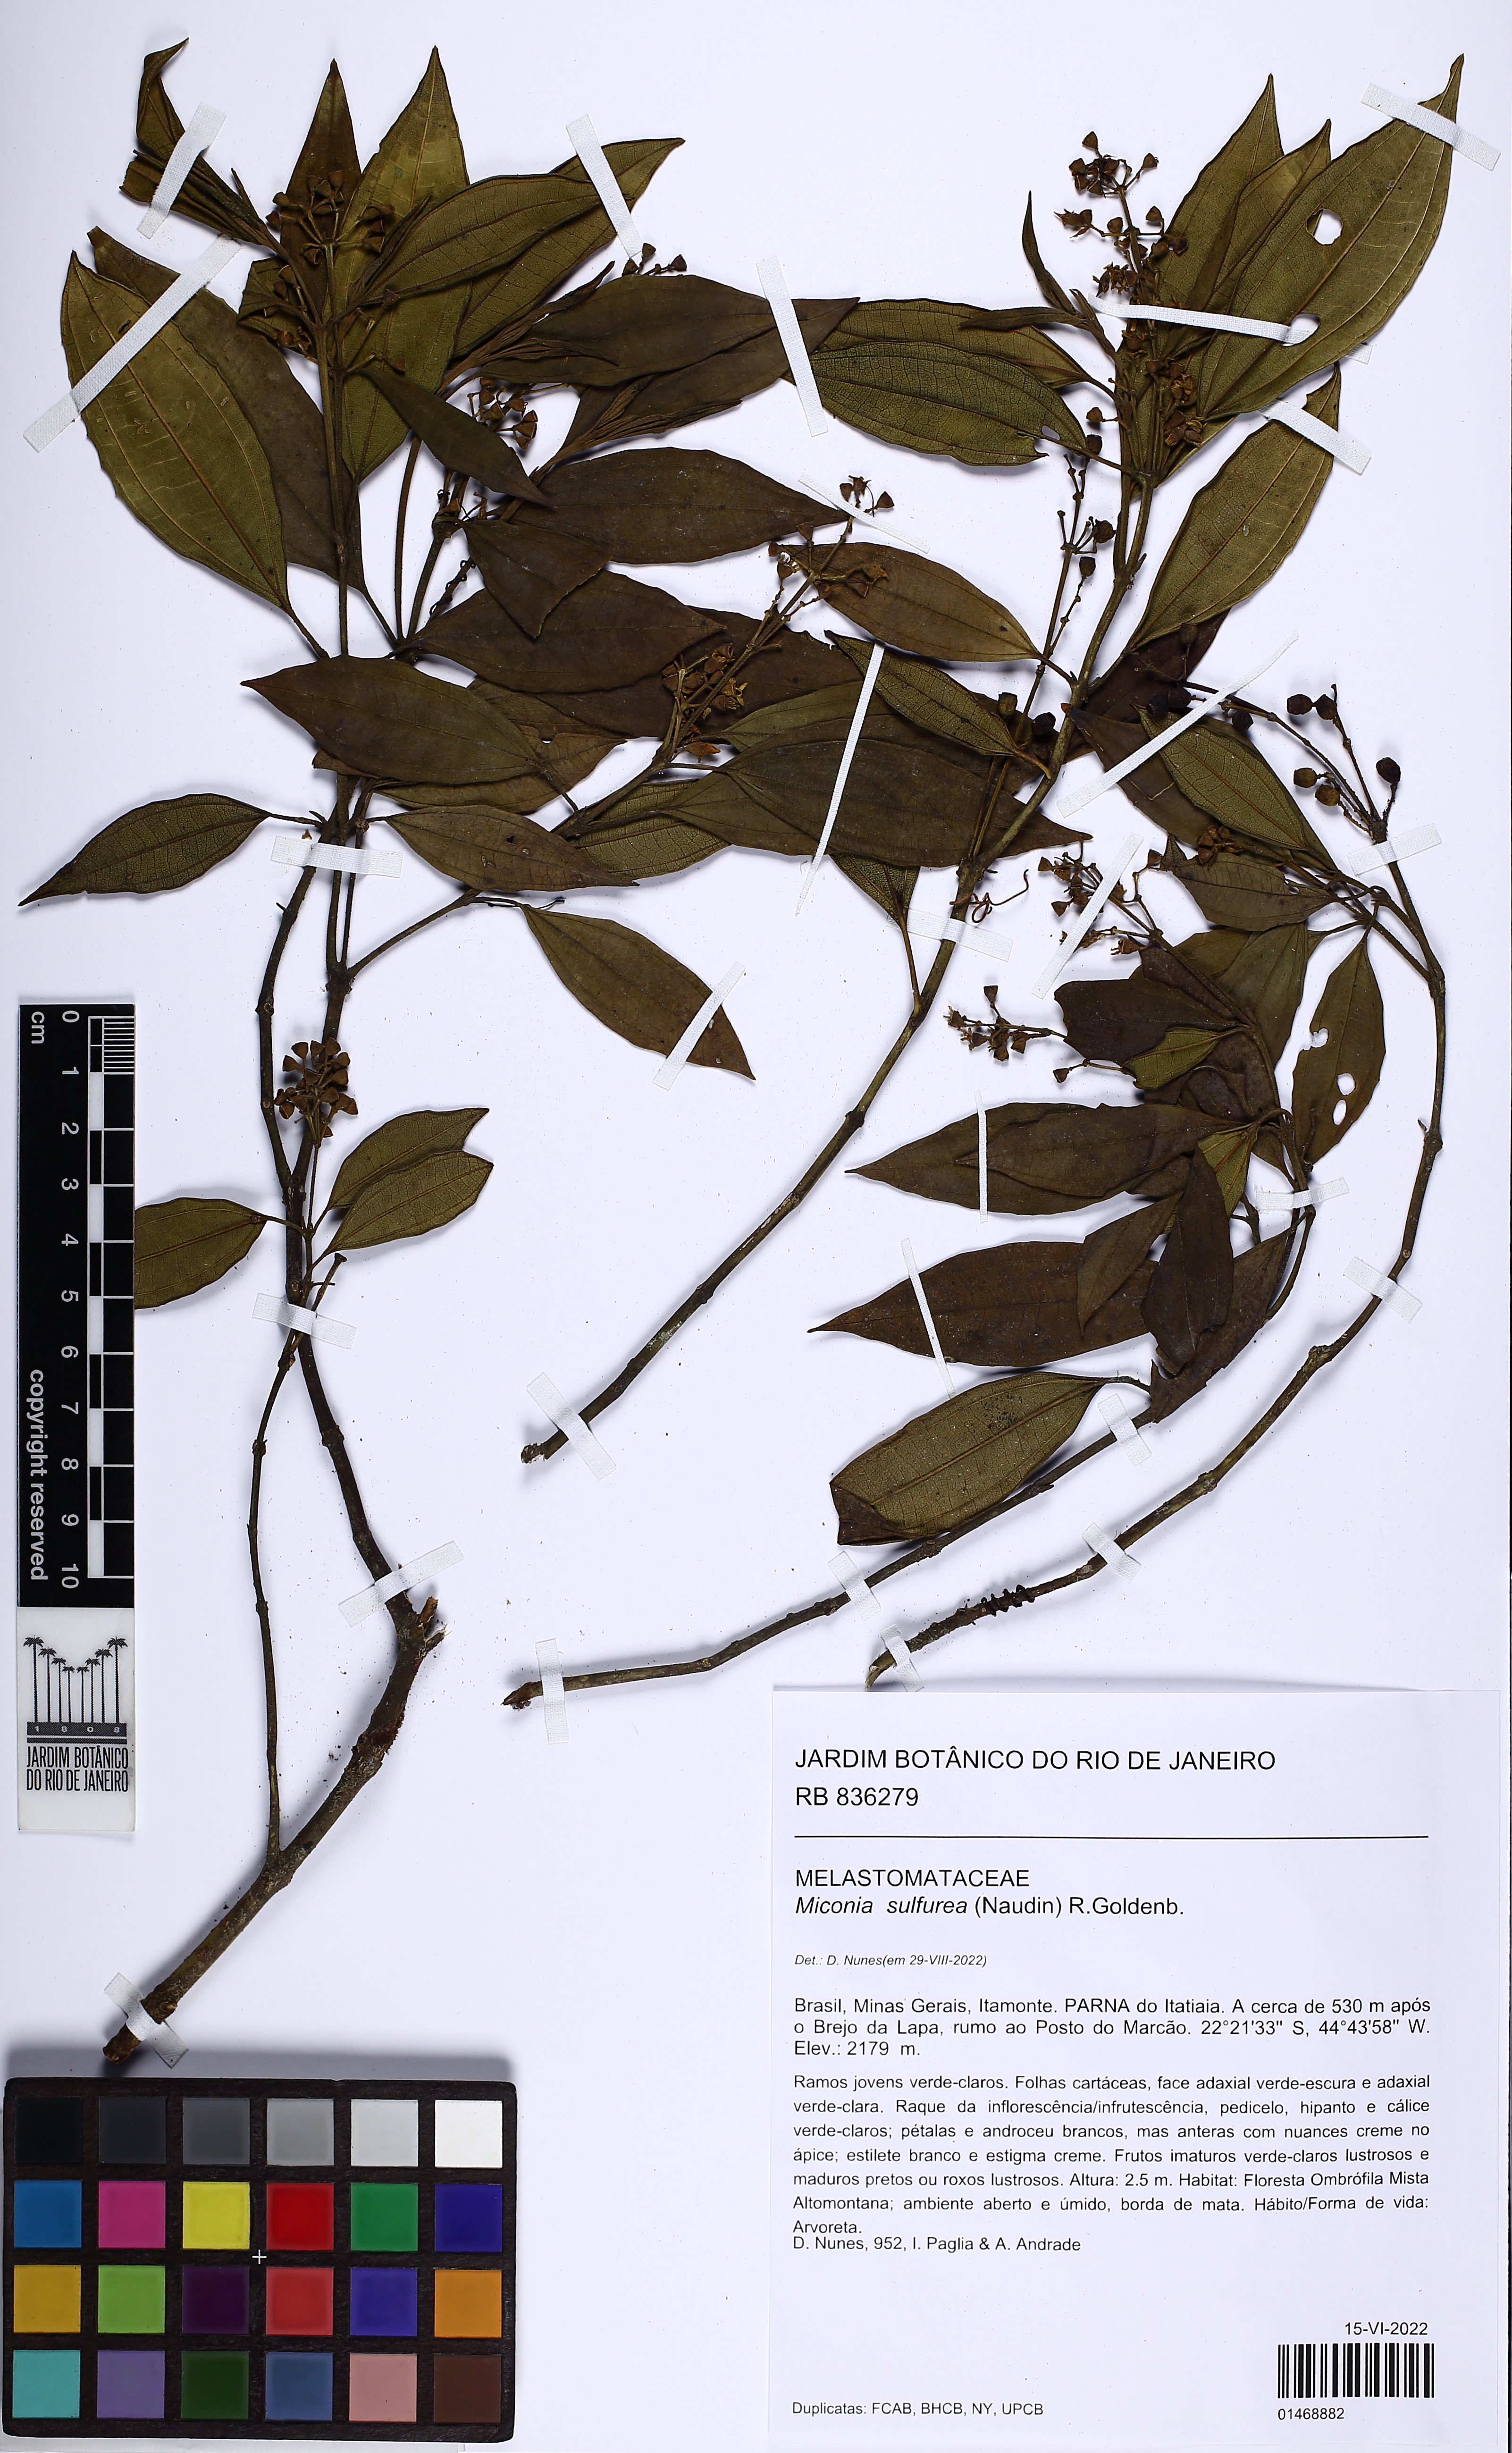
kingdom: Plantae
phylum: Tracheophyta
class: Magnoliopsida
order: Myrtales
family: Melastomataceae
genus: Miconia
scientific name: Miconia sulfurea
